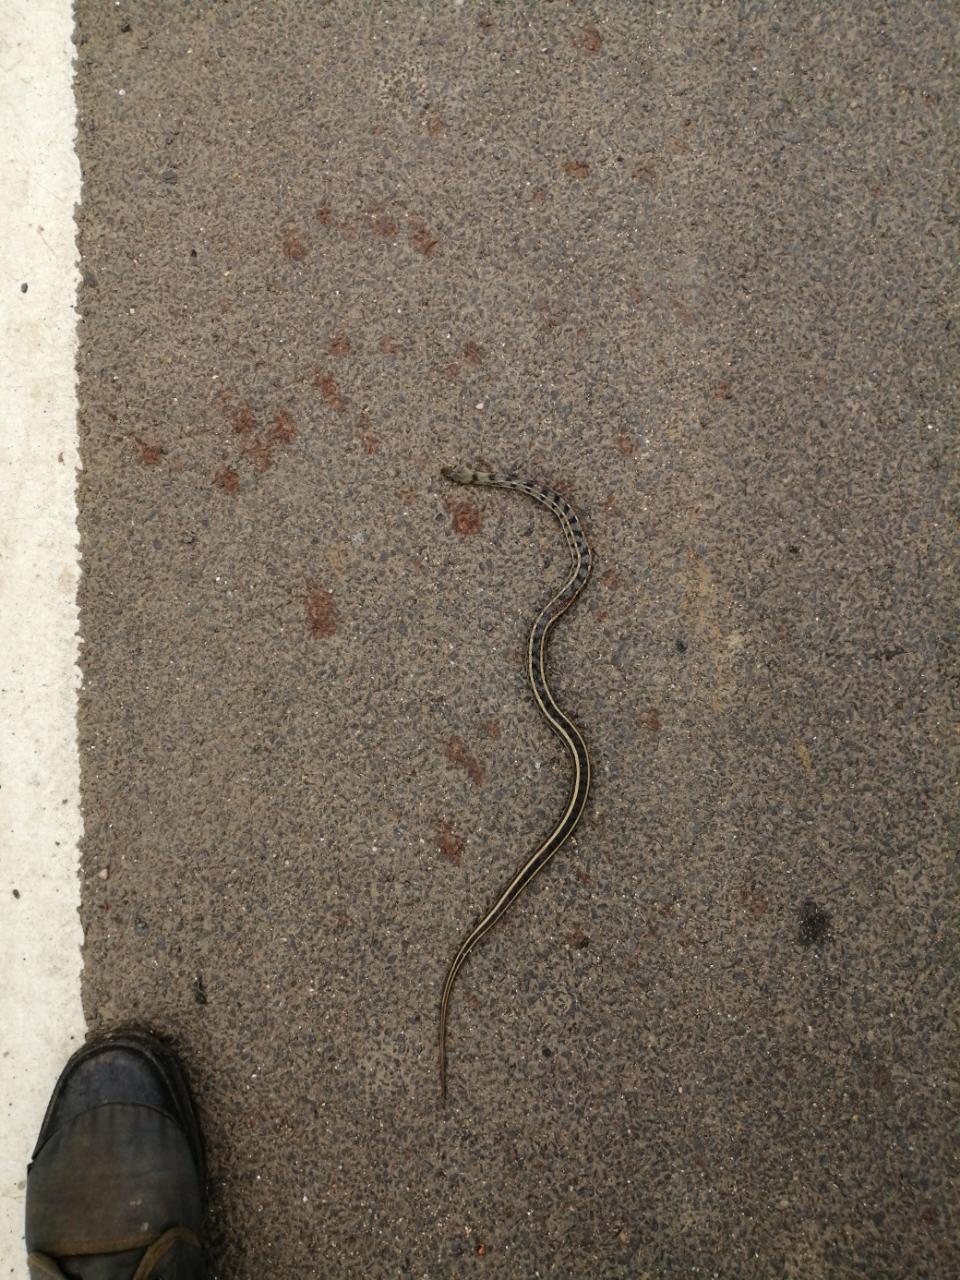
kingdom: Animalia
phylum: Chordata
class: Squamata
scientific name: Squamata
